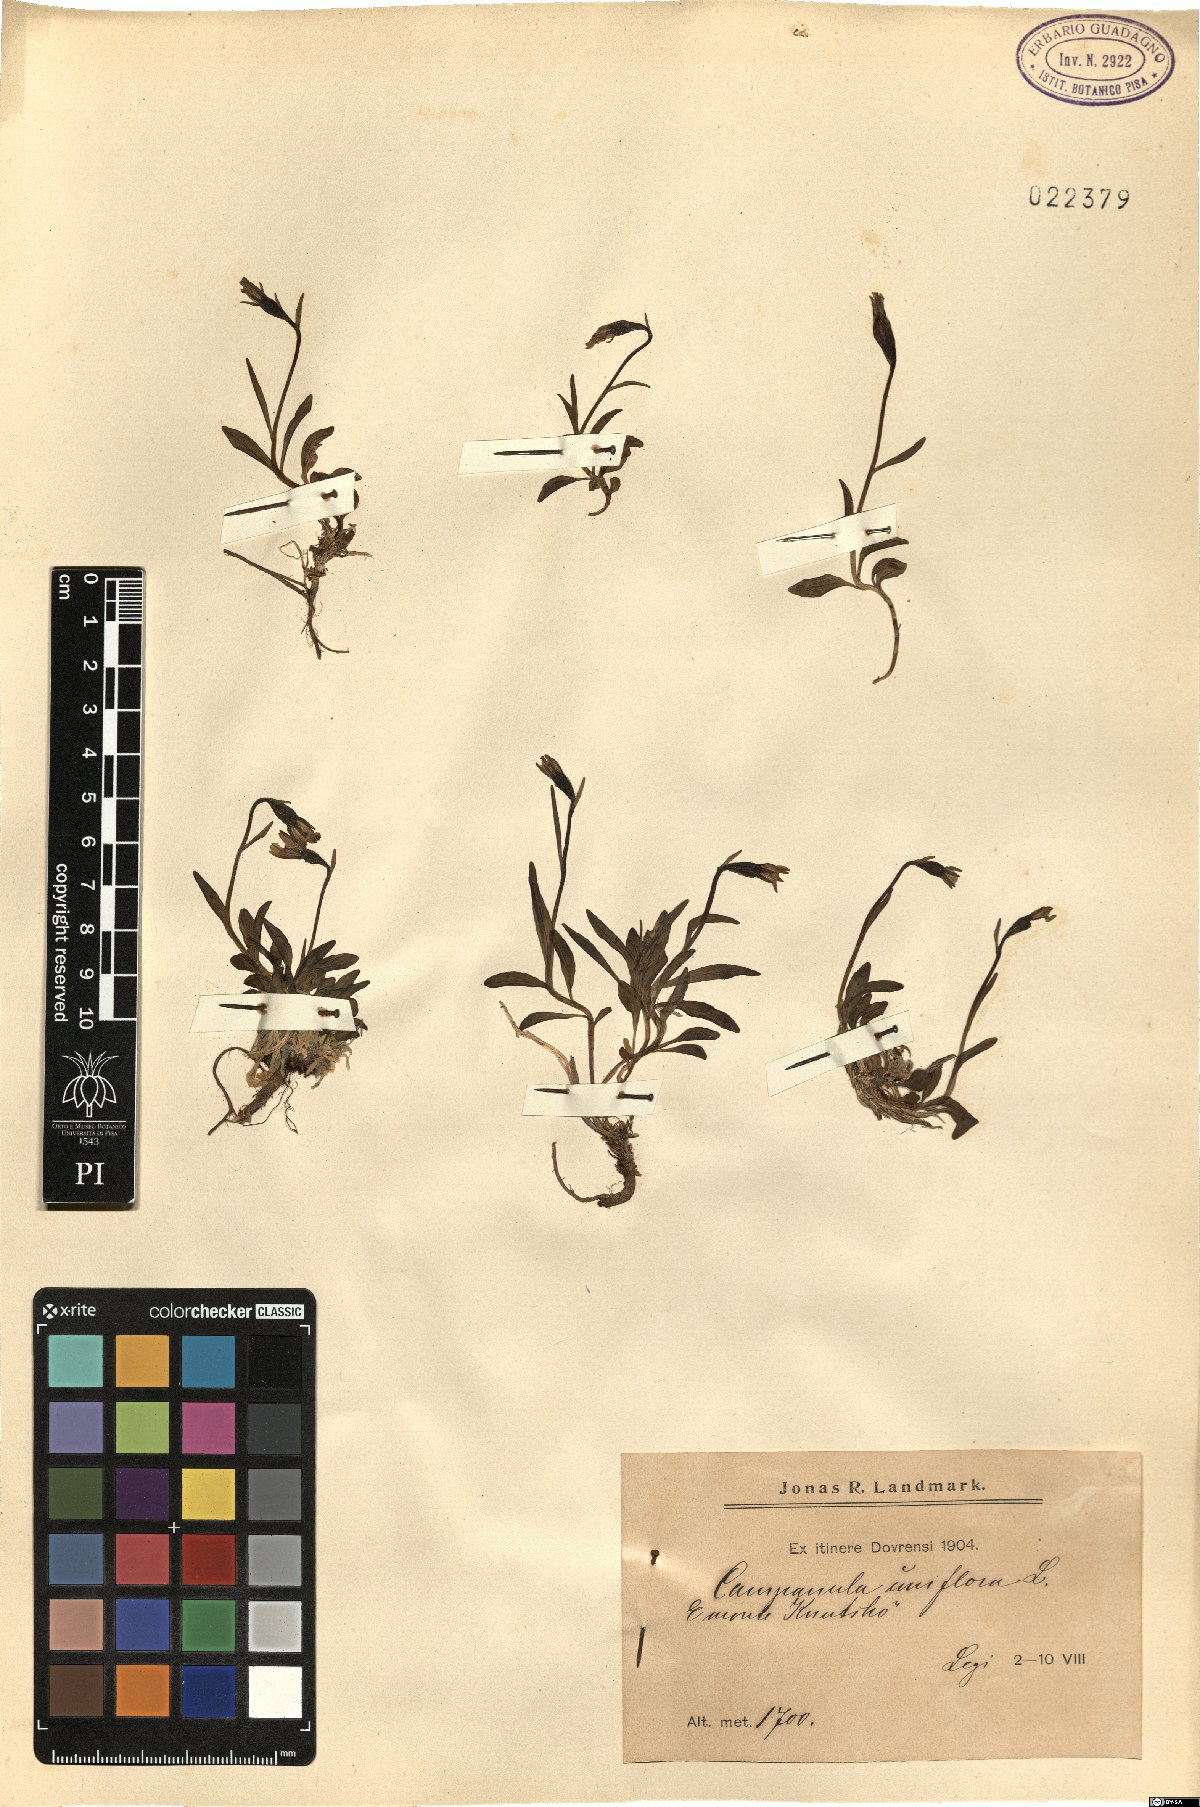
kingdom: Plantae
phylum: Tracheophyta
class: Magnoliopsida
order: Asterales
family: Campanulaceae
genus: Melanocalyx
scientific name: Melanocalyx uniflora
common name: Alpine harebell
